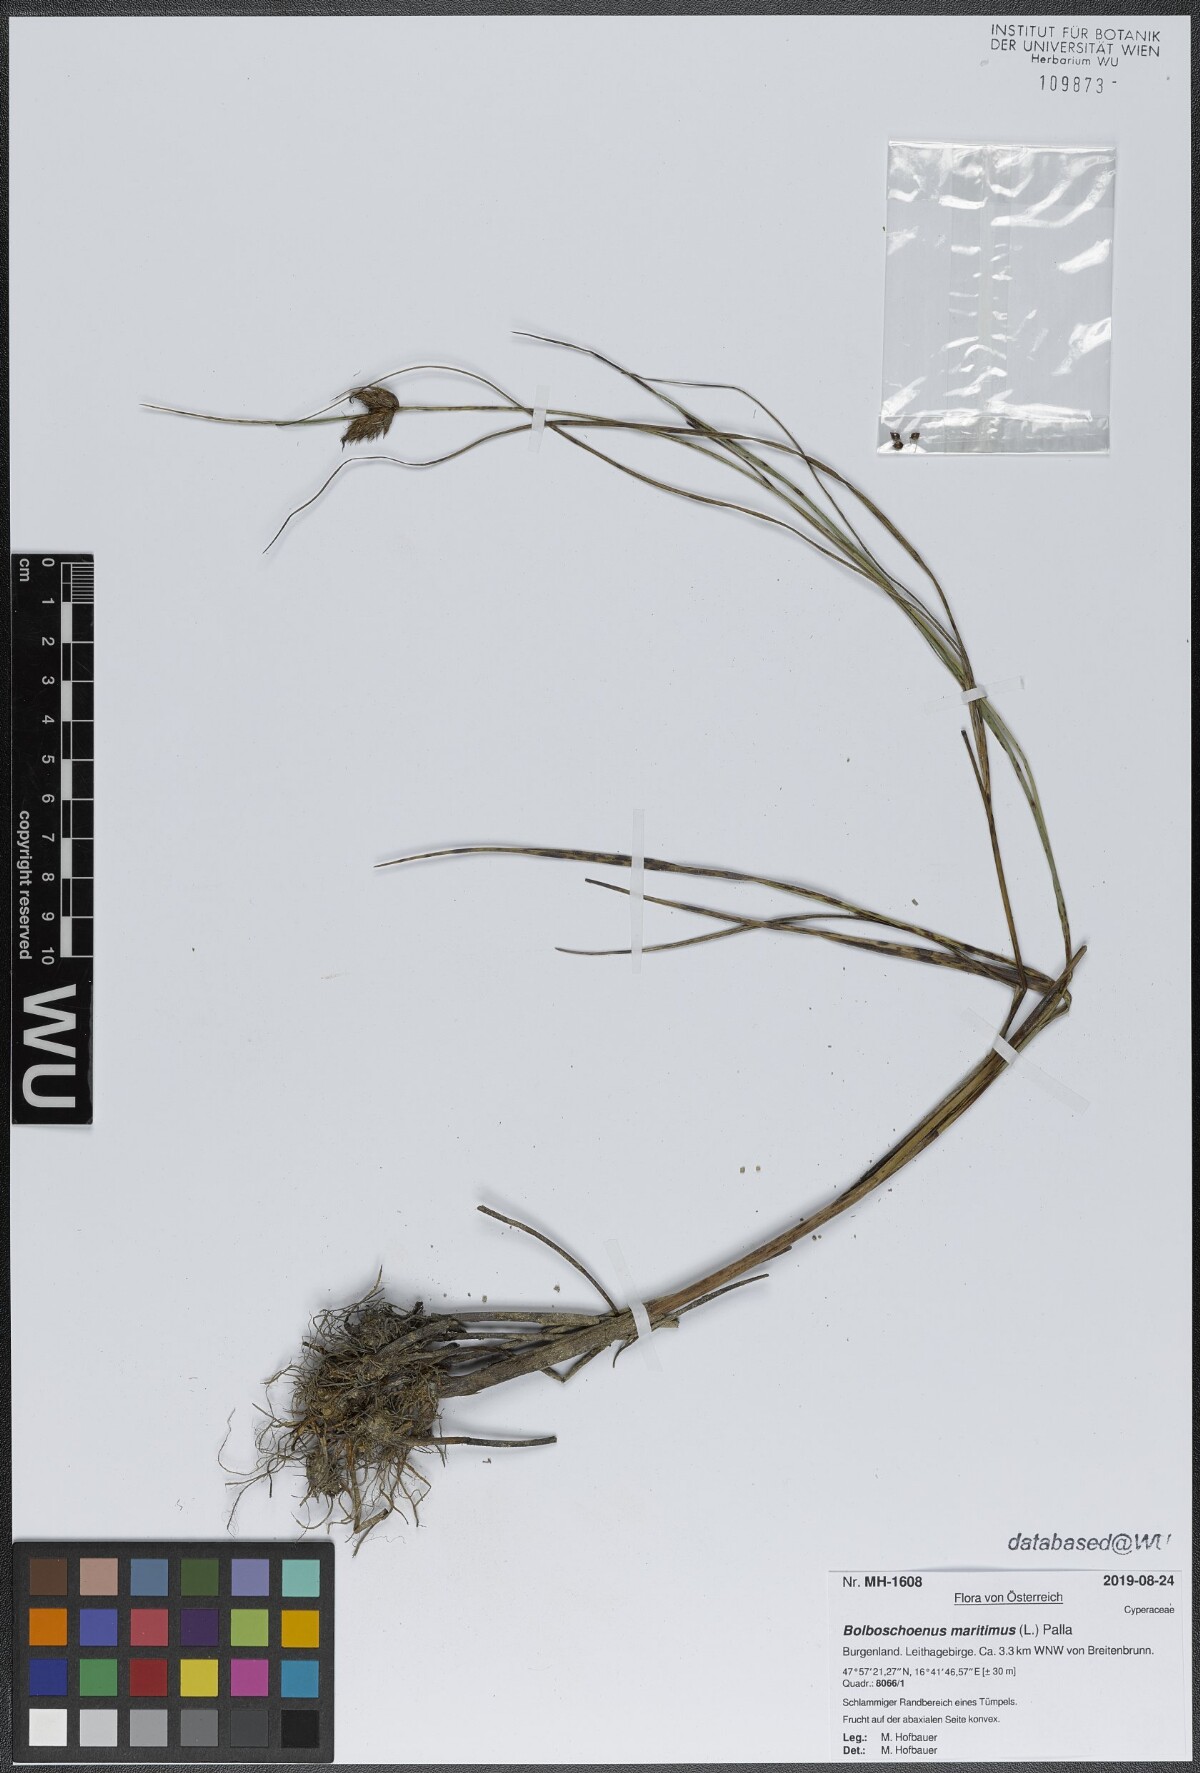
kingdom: Plantae
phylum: Tracheophyta
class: Liliopsida
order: Poales
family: Cyperaceae
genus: Bolboschoenus
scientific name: Bolboschoenus maritimus
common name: Sea club-rush
